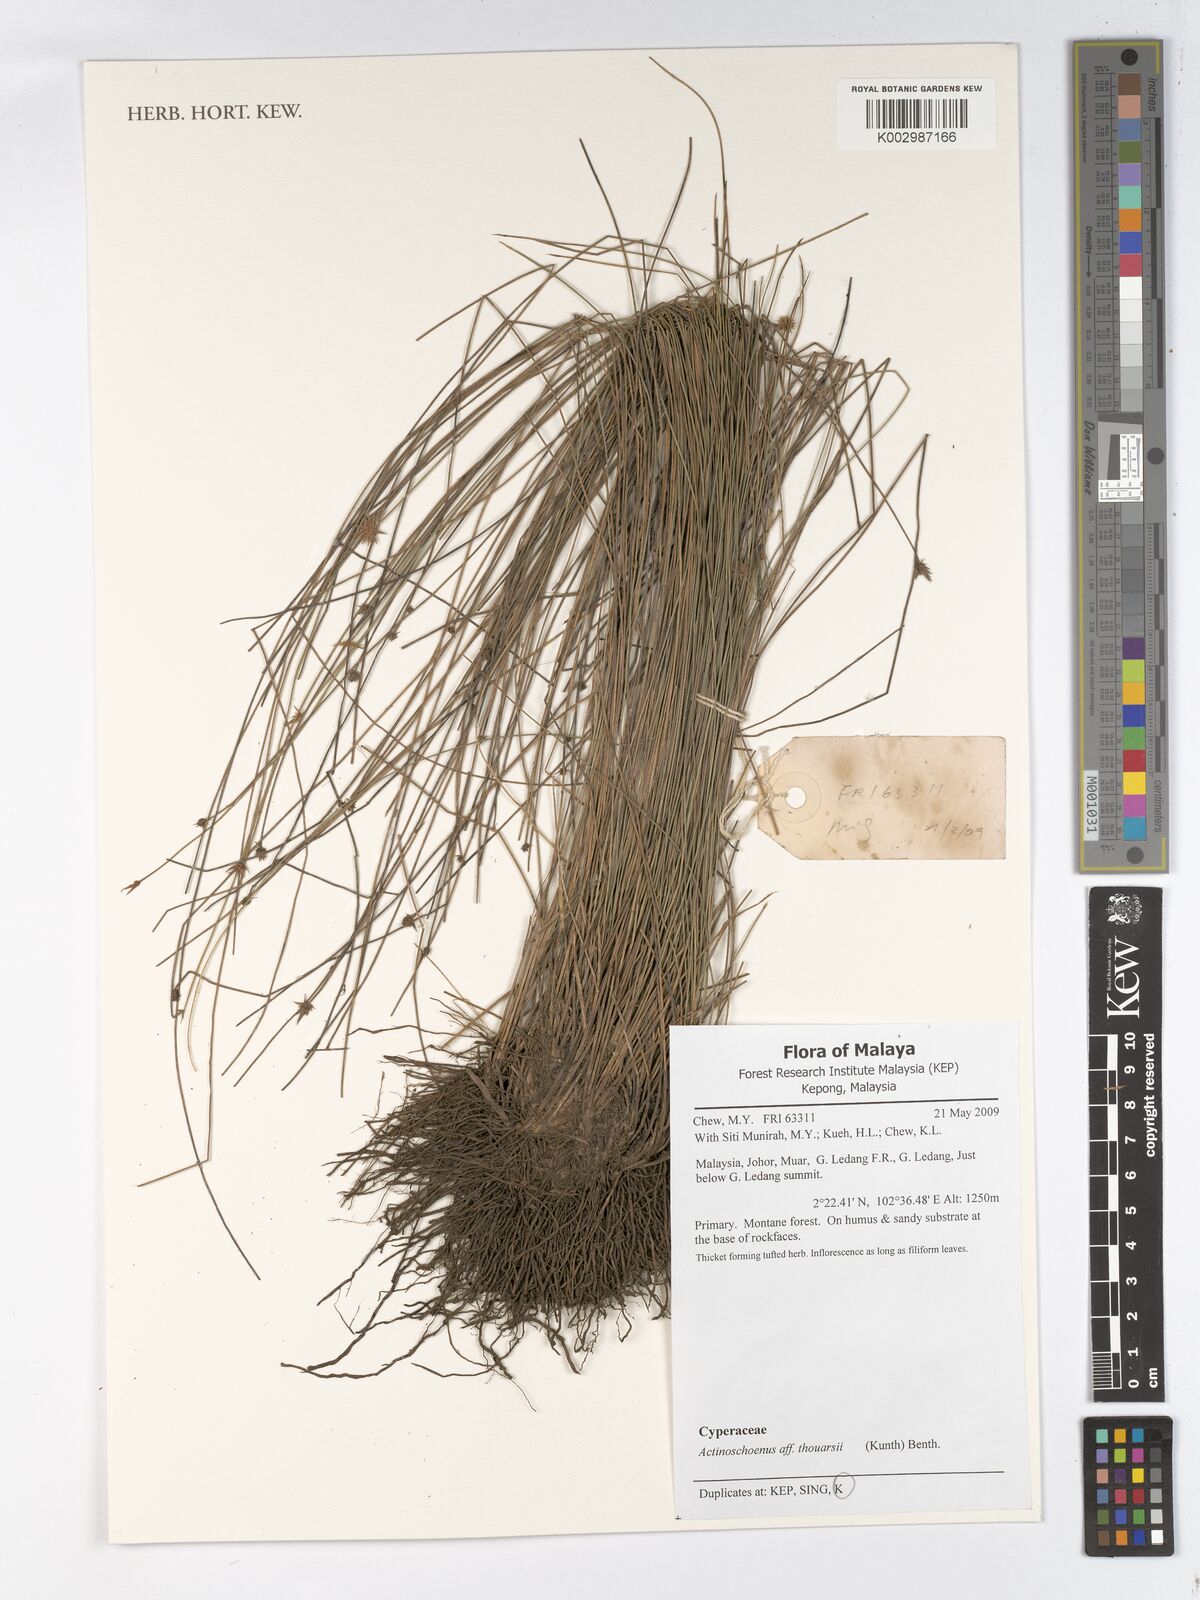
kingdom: Plantae
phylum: Tracheophyta
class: Liliopsida
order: Poales
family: Cyperaceae
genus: Actinoschoenus
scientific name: Actinoschoenus aphyllus
